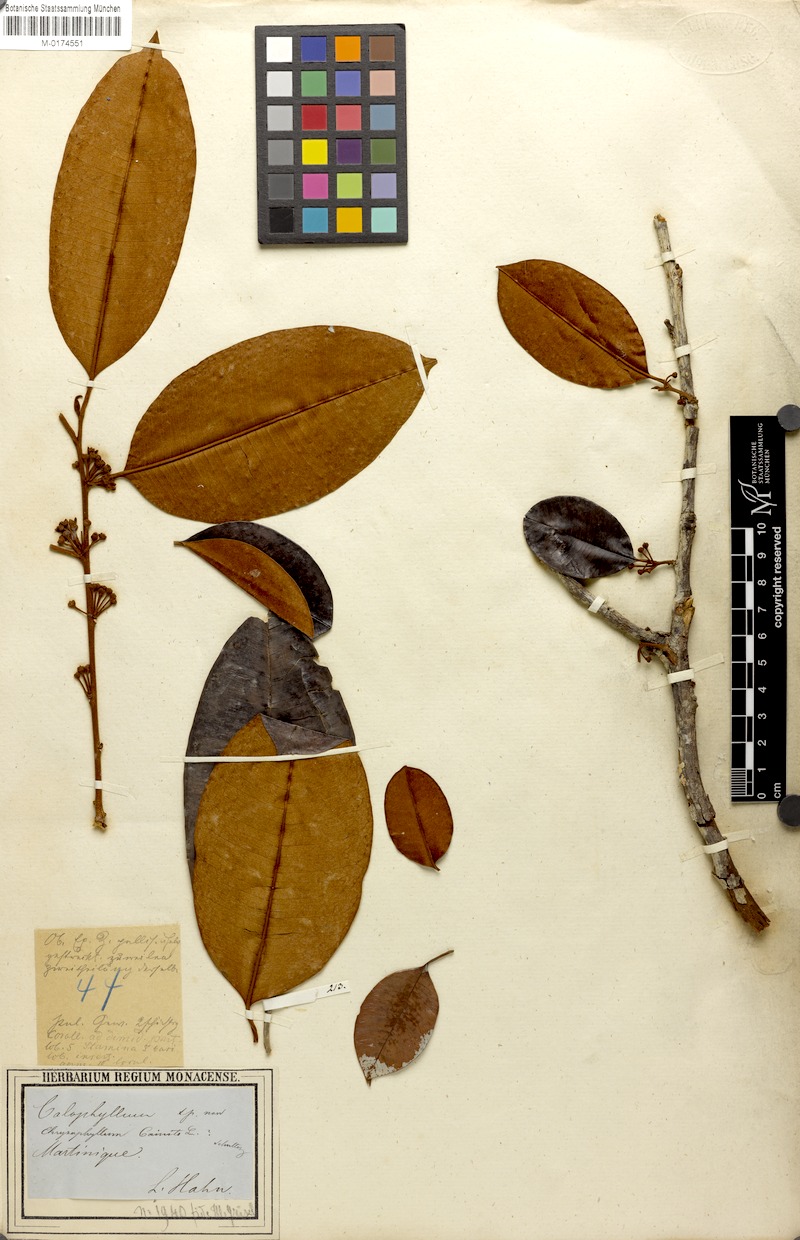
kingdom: Plantae
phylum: Tracheophyta
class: Magnoliopsida
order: Ericales
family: Sapotaceae
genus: Chrysophyllum
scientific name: Chrysophyllum cainito
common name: Star-apple
